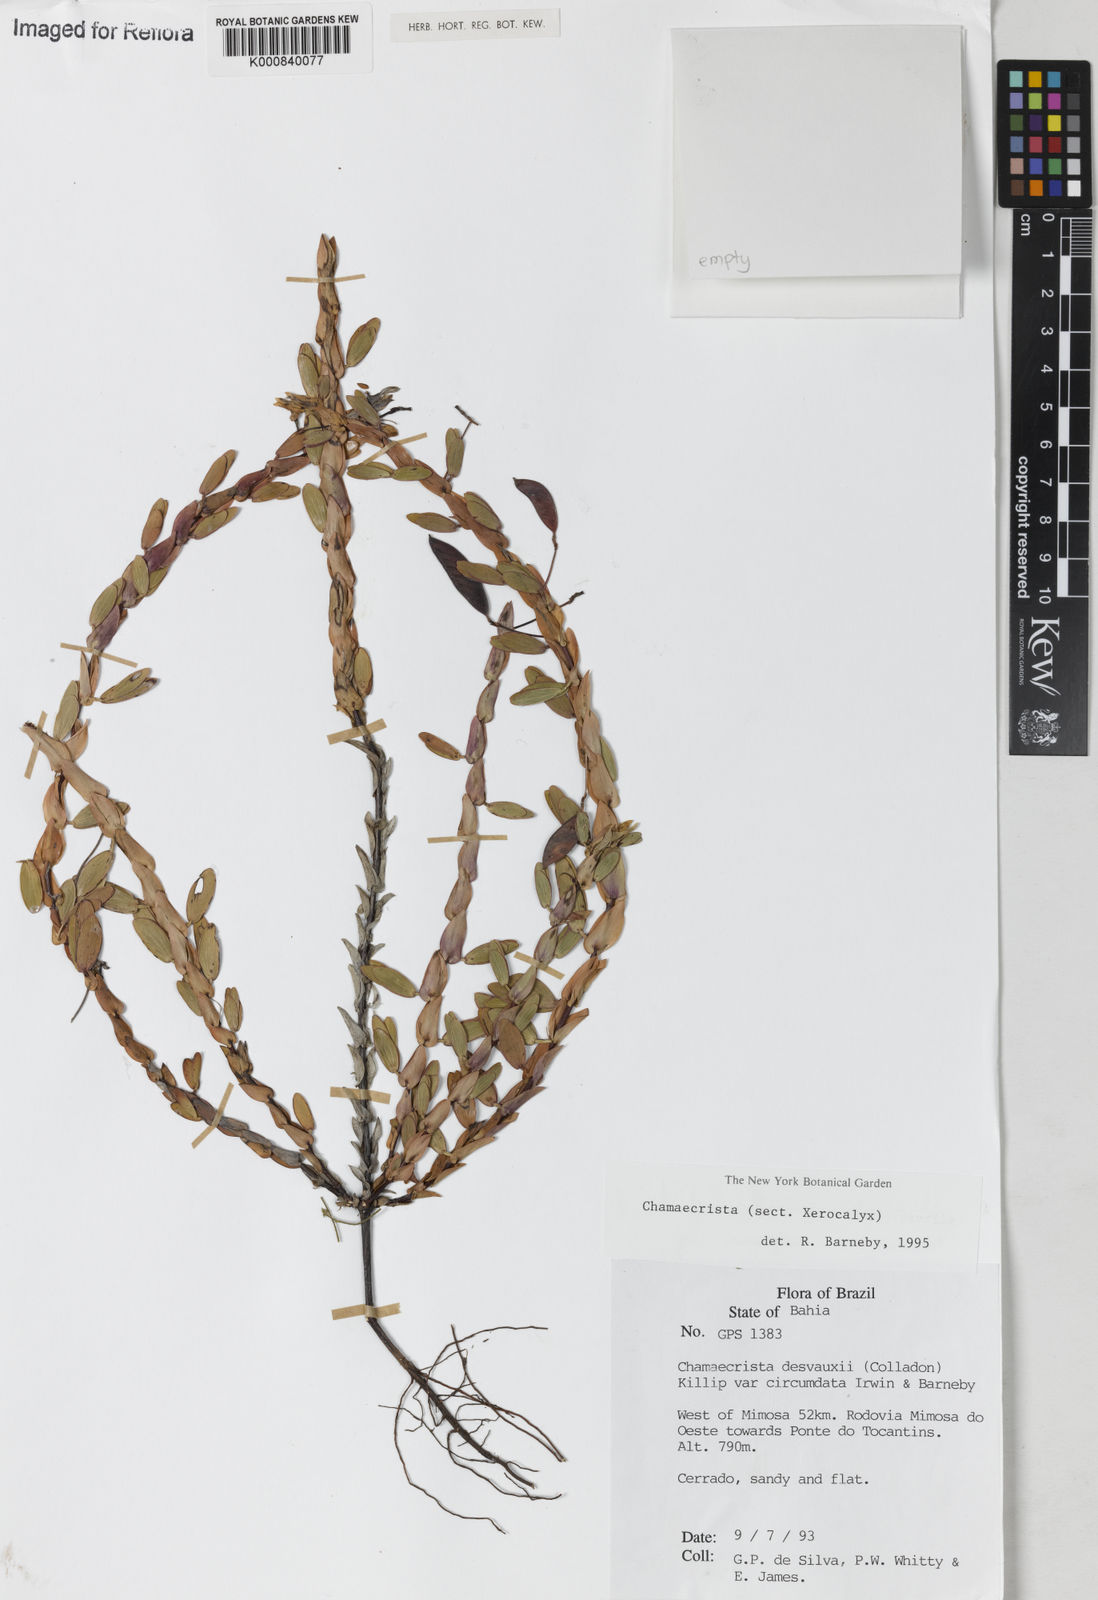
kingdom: Plantae
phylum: Tracheophyta
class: Magnoliopsida
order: Fabales
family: Fabaceae
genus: Chamaecrista
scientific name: Chamaecrista desvauxii
